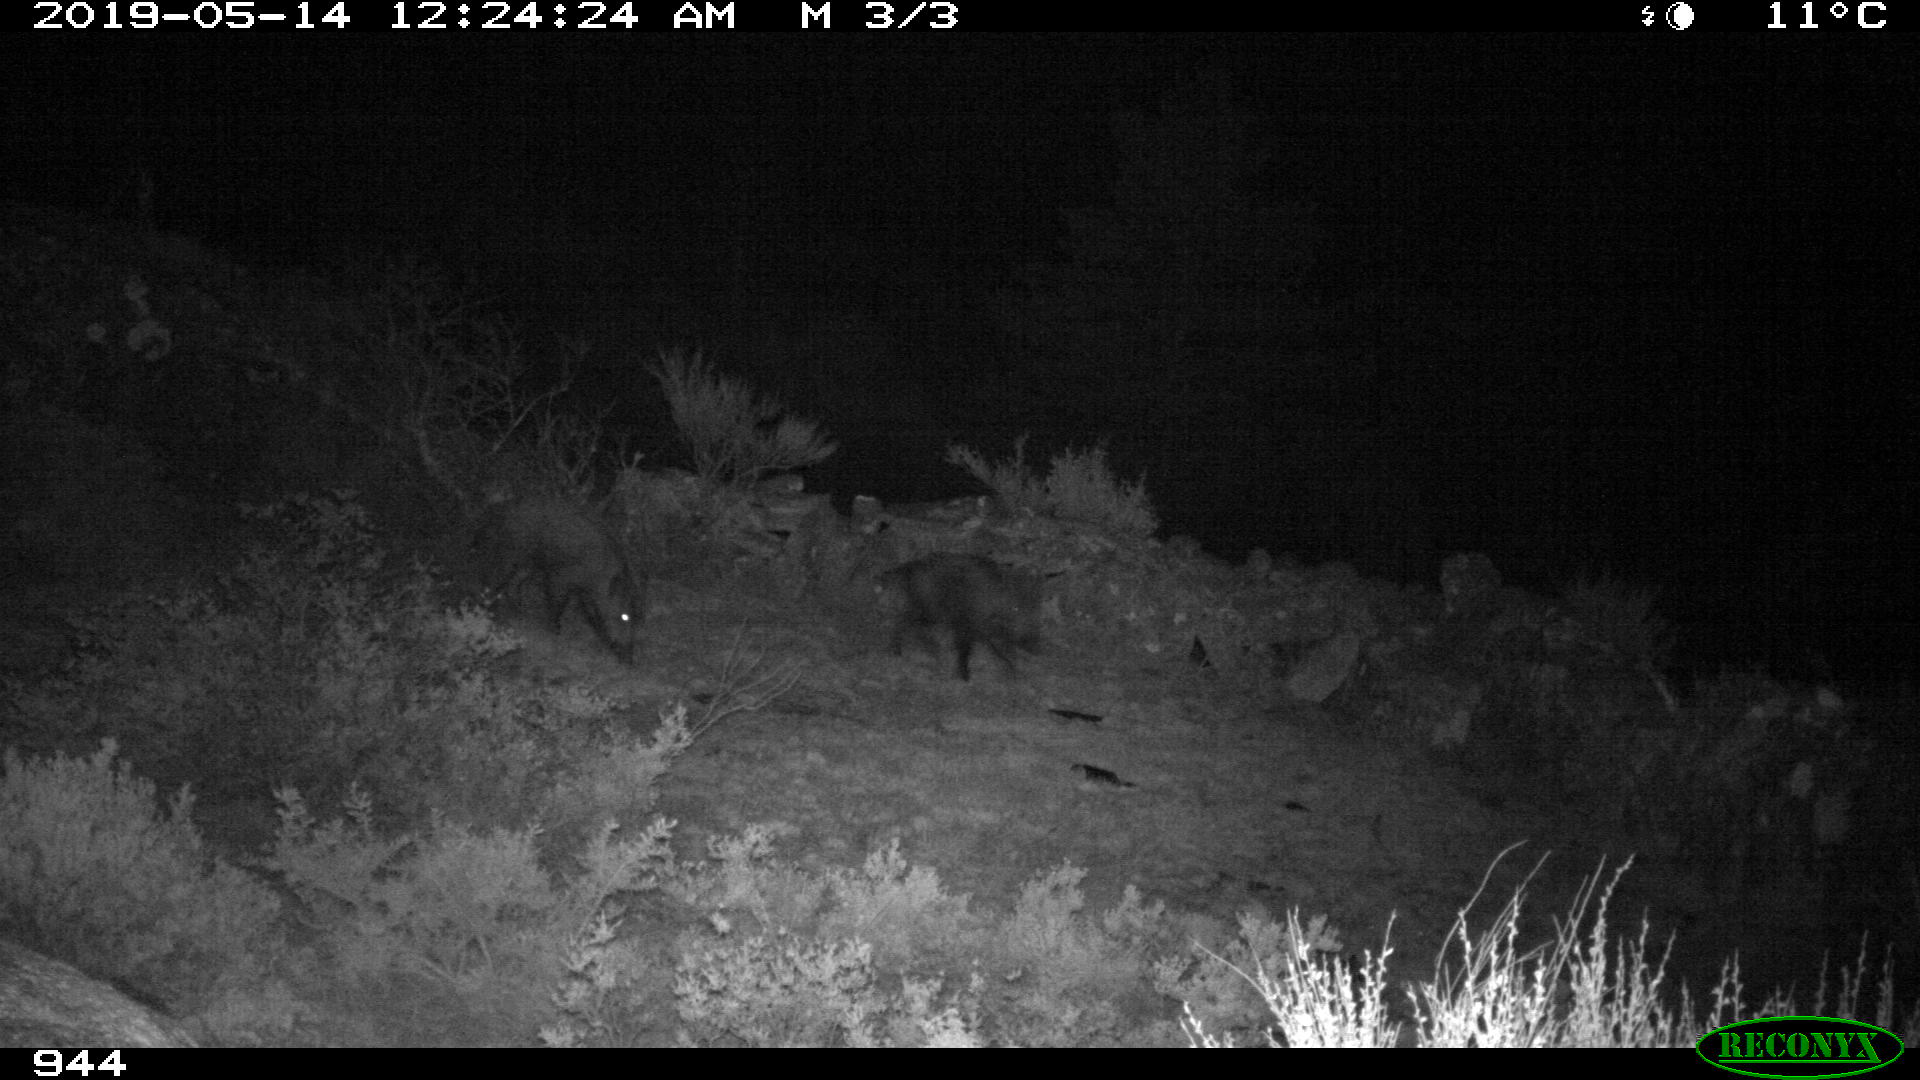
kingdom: Animalia
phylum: Chordata
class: Mammalia
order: Artiodactyla
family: Suidae
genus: Sus
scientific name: Sus scrofa
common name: Wild boar
